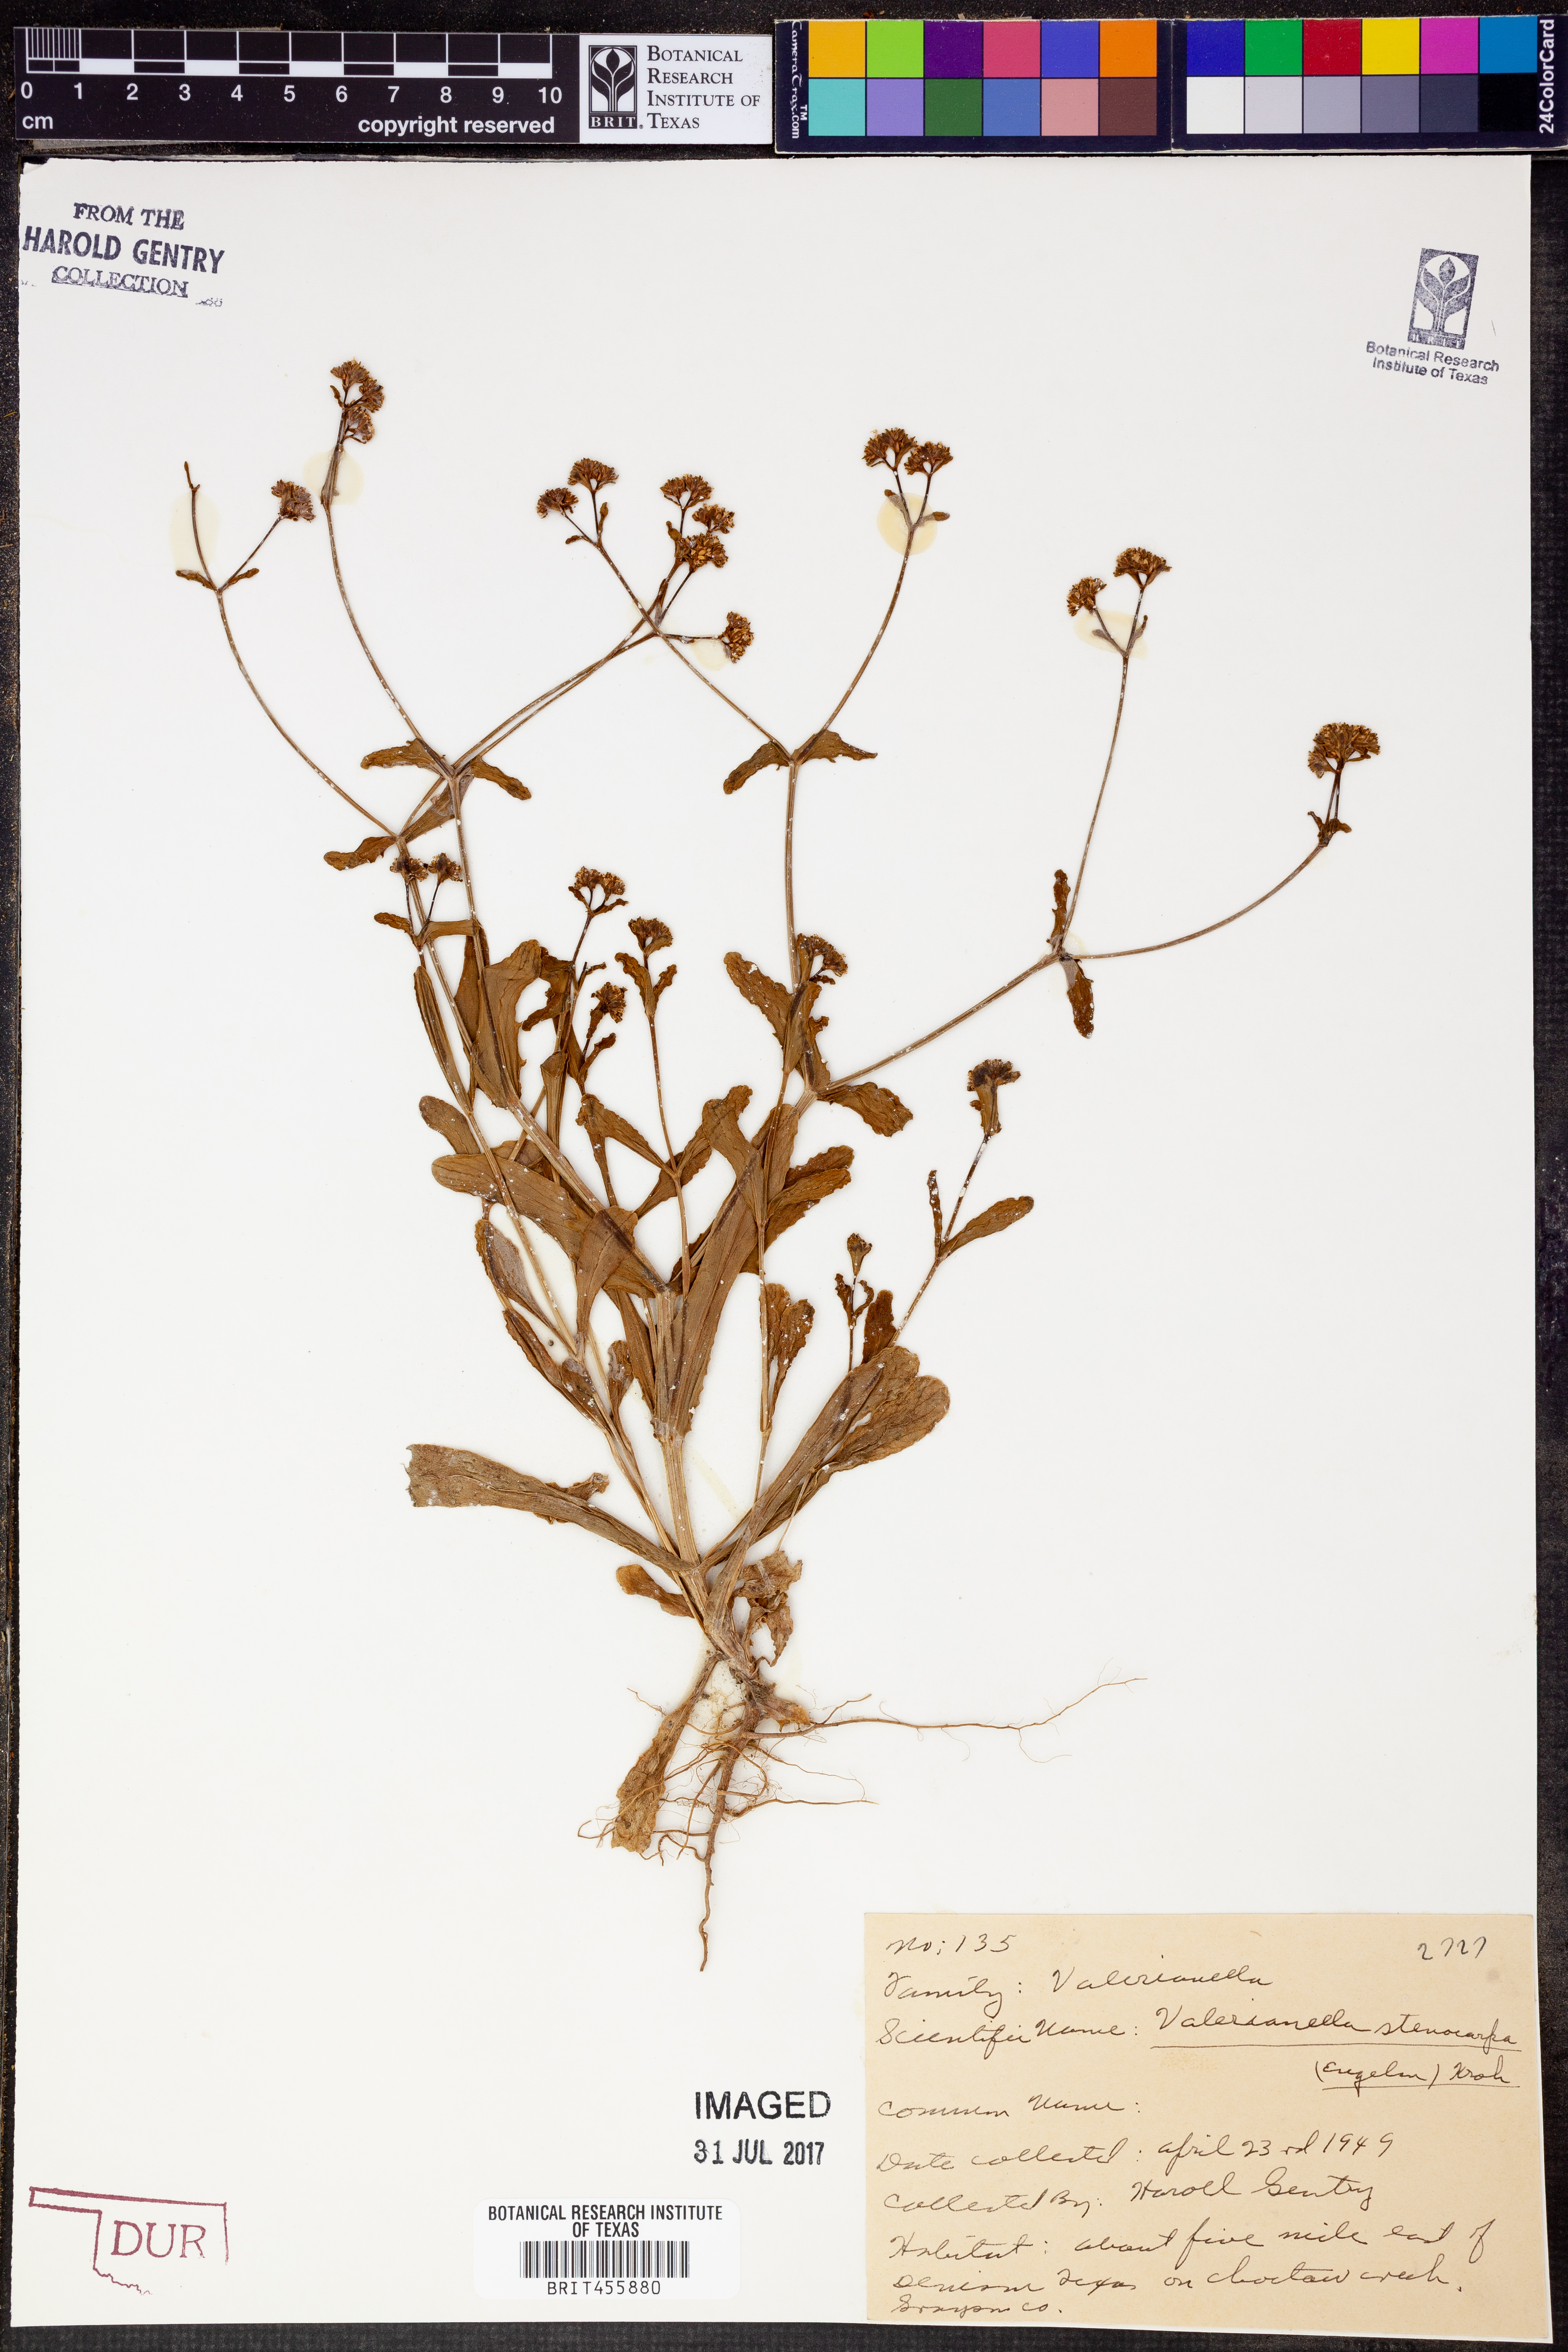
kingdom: Plantae
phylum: Tracheophyta
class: Magnoliopsida
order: Dipsacales
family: Caprifoliaceae
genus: Valerianella
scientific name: Valerianella stenocarpa
